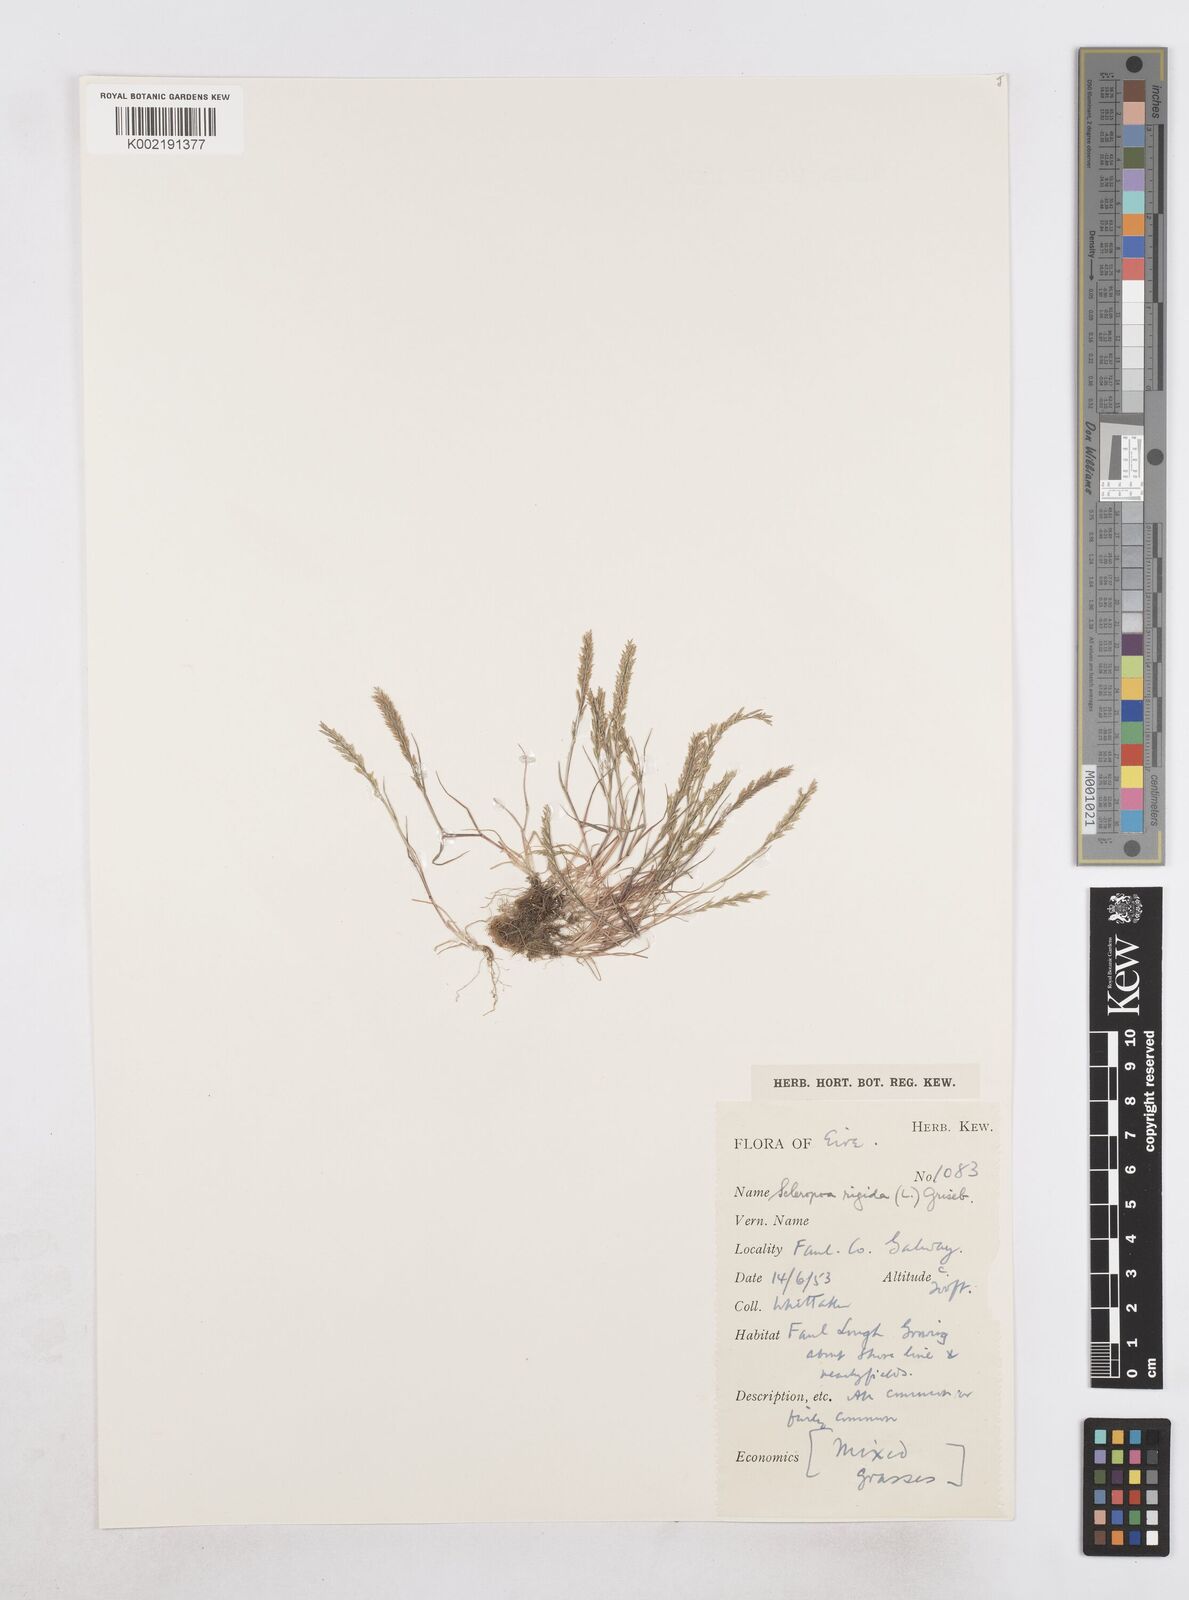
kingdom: Plantae
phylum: Tracheophyta
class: Liliopsida
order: Poales
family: Poaceae
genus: Catapodium
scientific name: Catapodium rigidum
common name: Fern-grass
